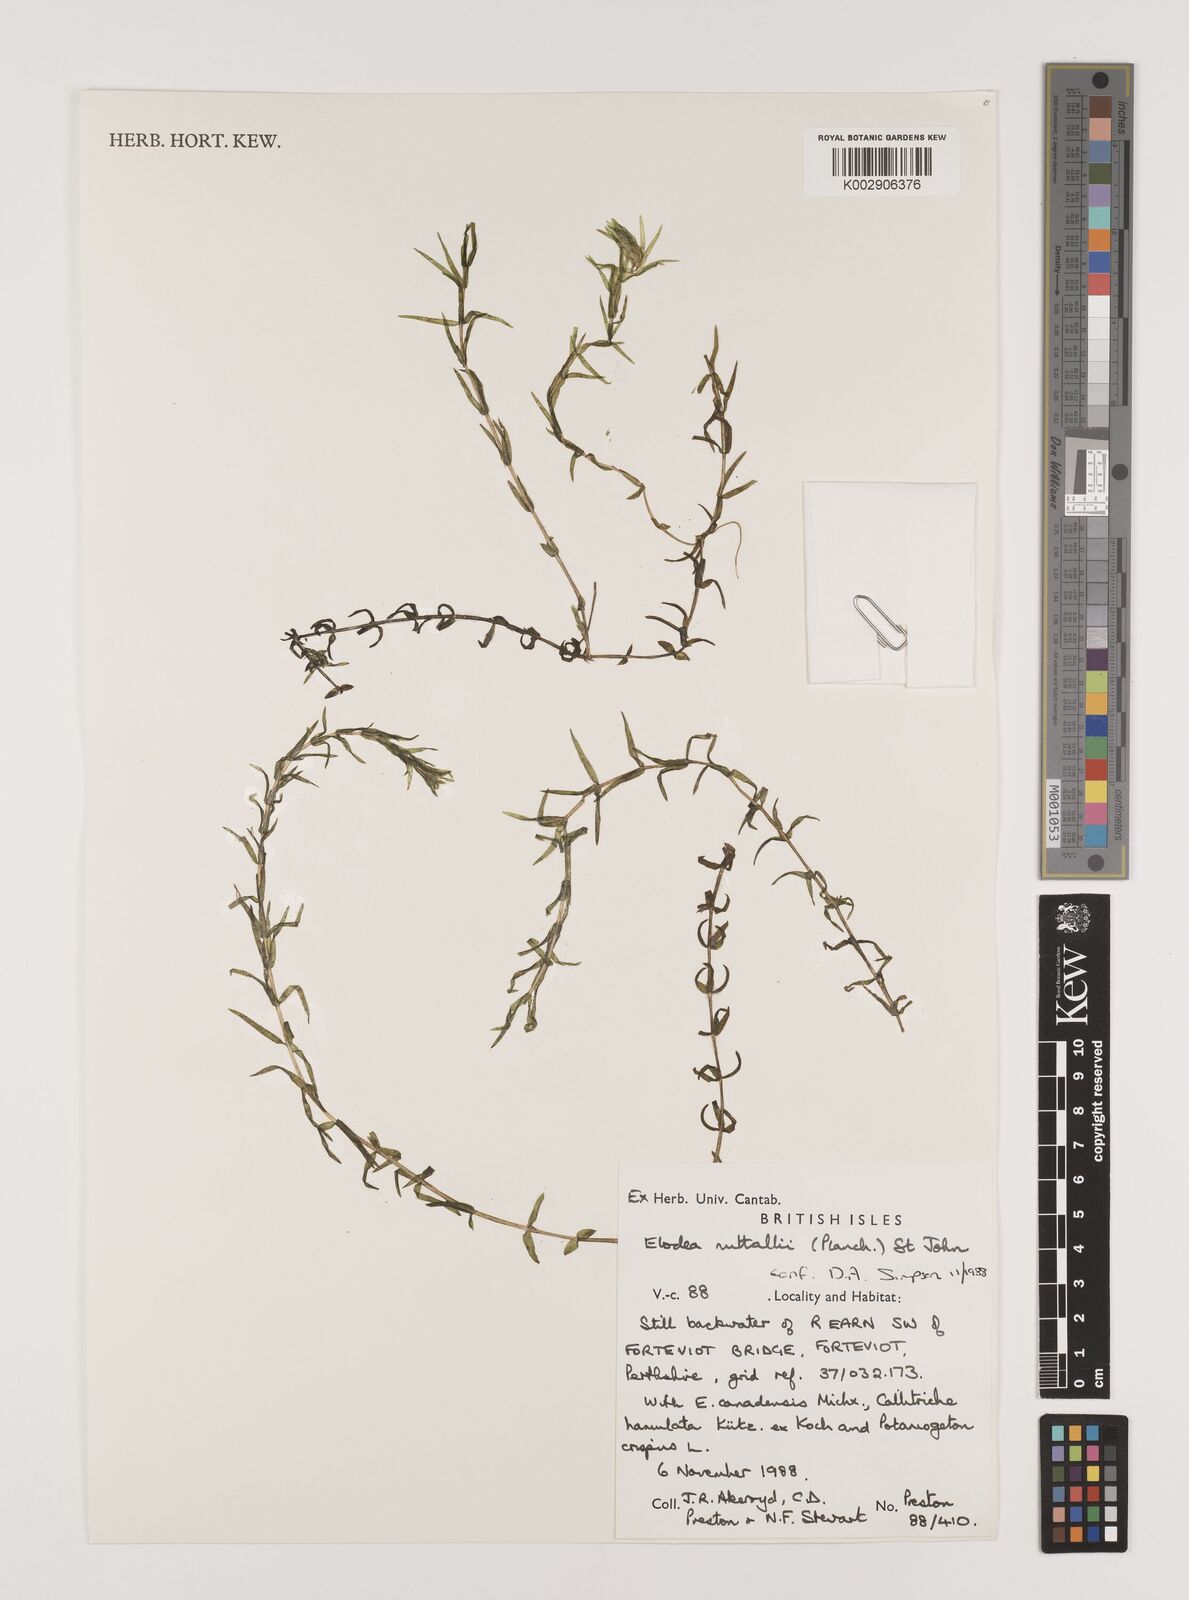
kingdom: Plantae
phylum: Tracheophyta
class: Liliopsida
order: Alismatales
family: Hydrocharitaceae
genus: Elodea
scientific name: Elodea nuttallii
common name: Nuttall's waterweed
